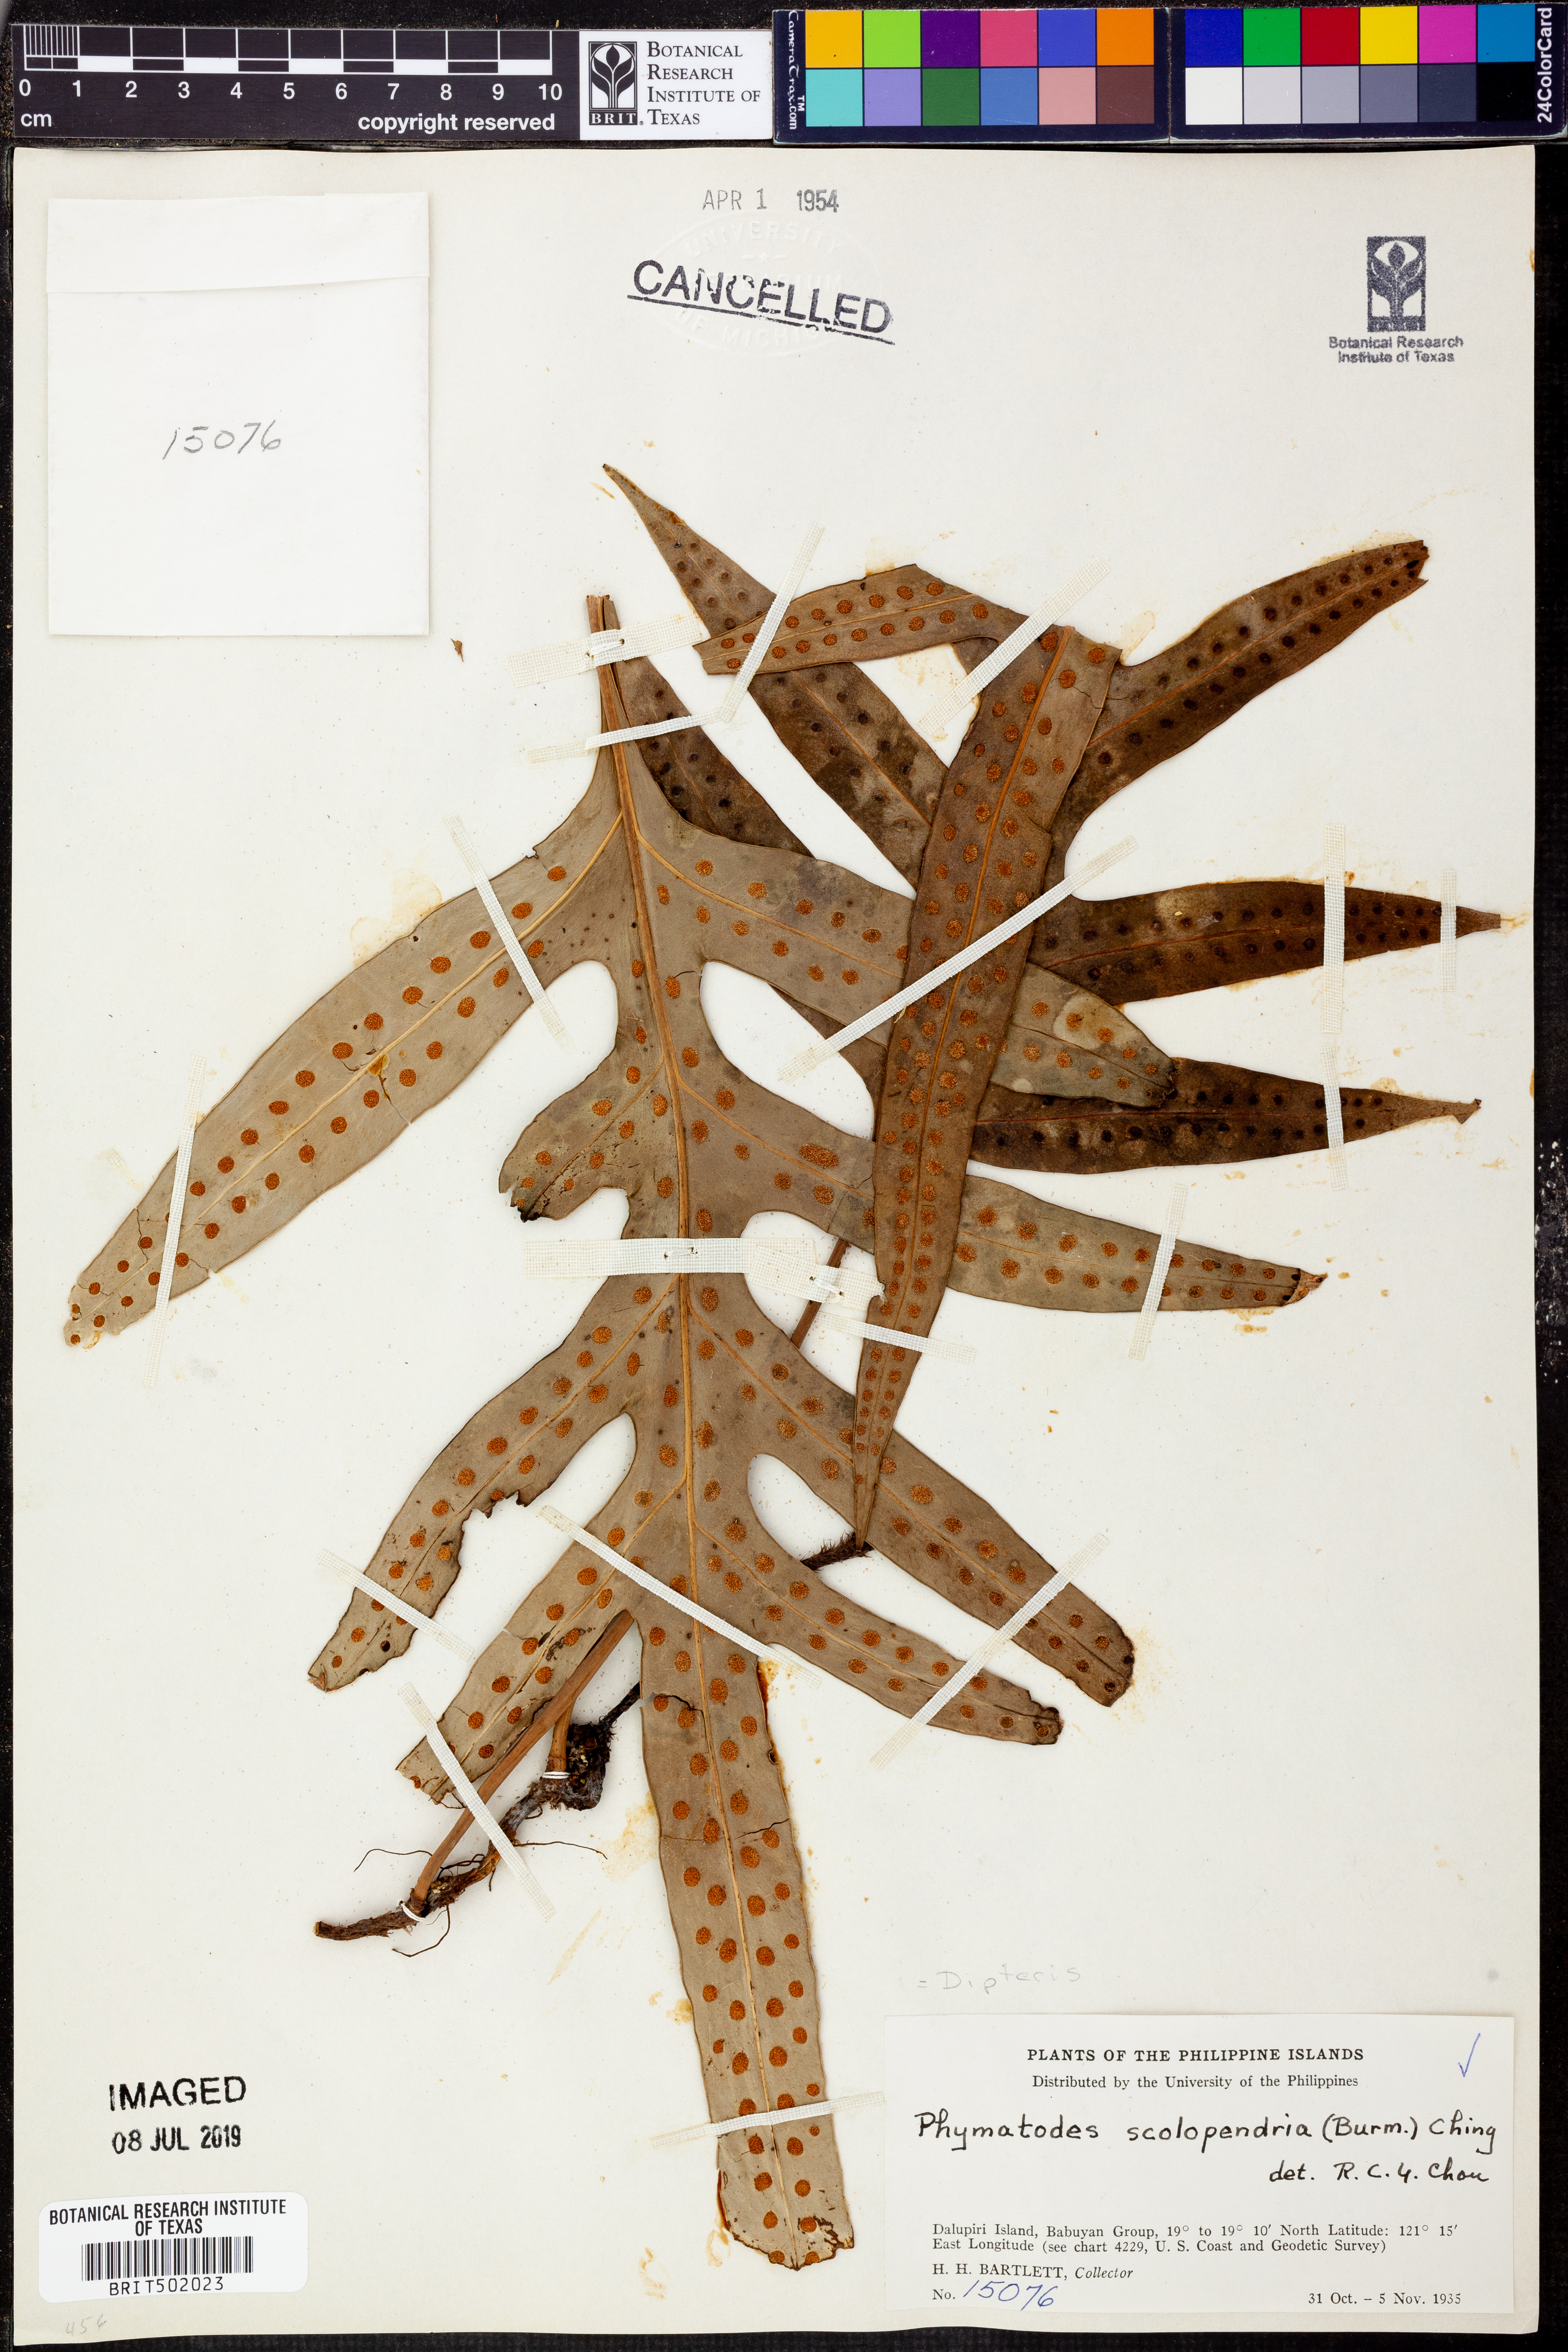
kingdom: Plantae
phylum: Tracheophyta
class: Polypodiopsida
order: Gleicheniales
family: Dipteridaceae
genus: Dipteris
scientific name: Dipteris
